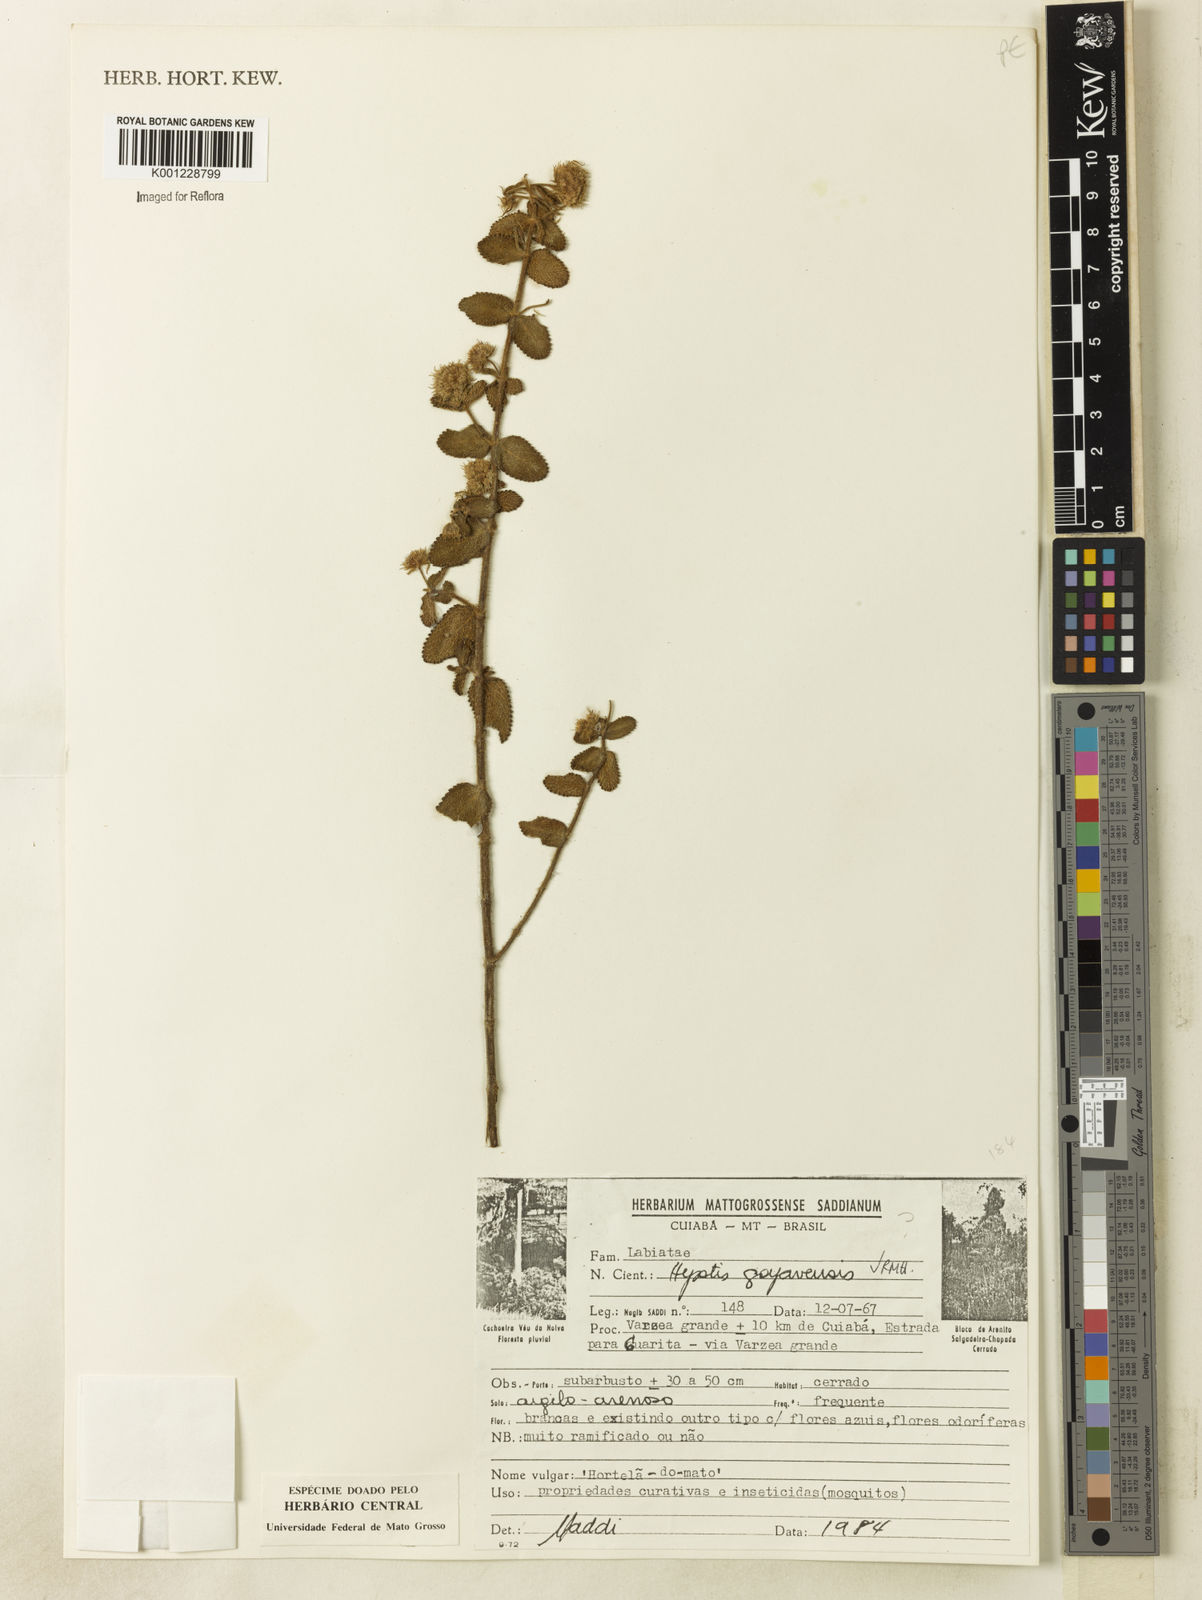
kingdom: Plantae
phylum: Tracheophyta
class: Magnoliopsida
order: Lamiales
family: Lamiaceae
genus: Hyptis
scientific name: Hyptis goyazensis
